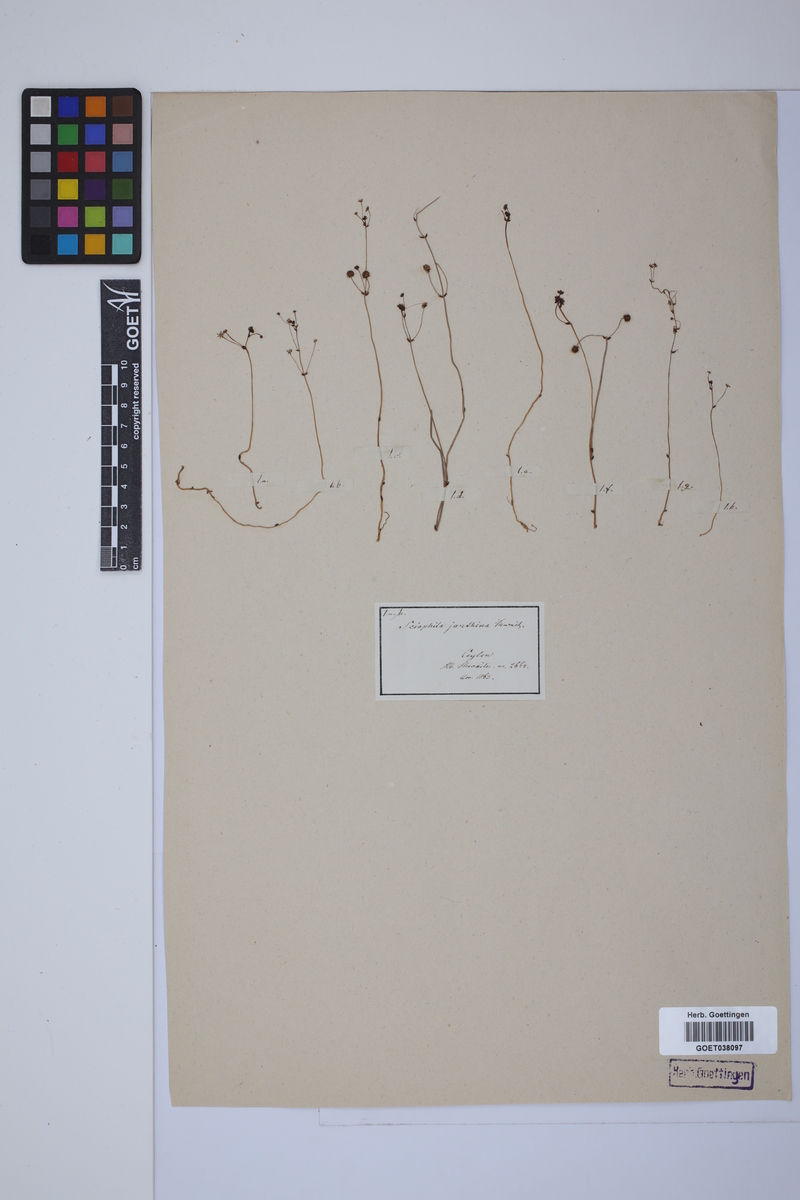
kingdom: Plantae
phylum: Tracheophyta
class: Liliopsida
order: Pandanales
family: Triuridaceae
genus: Sciaphila
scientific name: Sciaphila janthina
